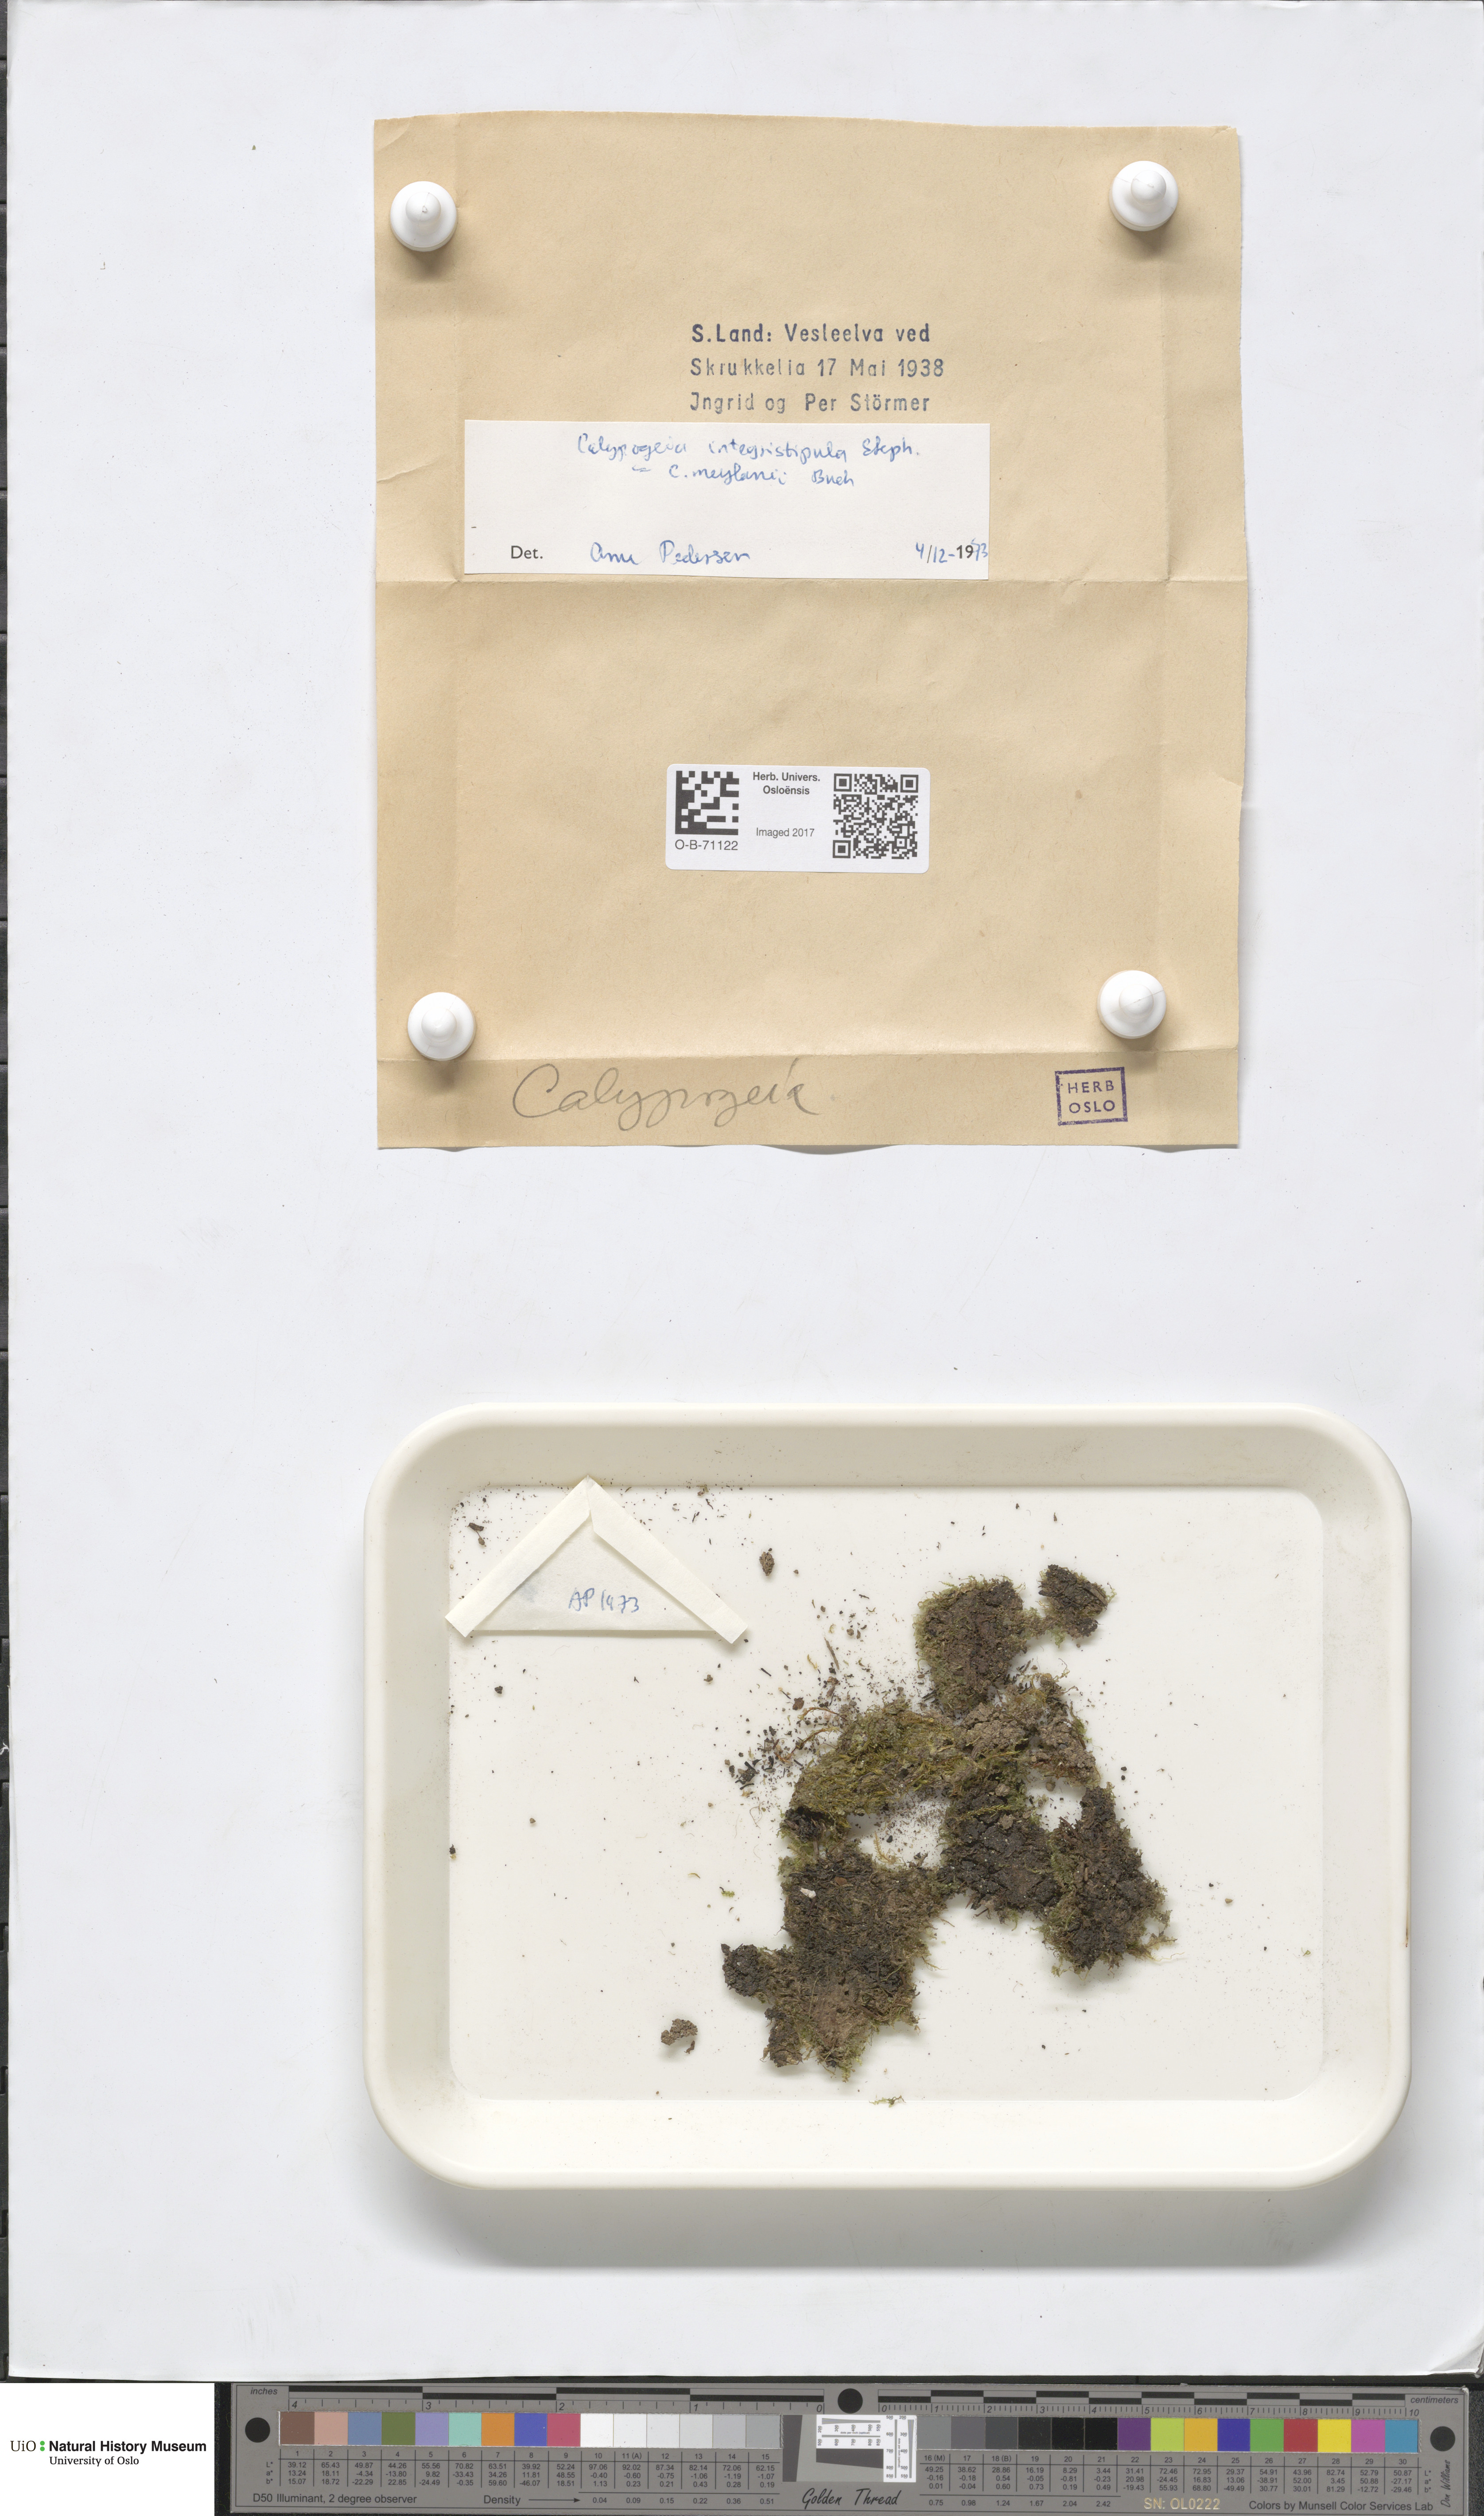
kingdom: Plantae
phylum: Marchantiophyta
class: Jungermanniopsida
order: Jungermanniales
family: Calypogeiaceae
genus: Calypogeia
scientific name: Calypogeia integristipula
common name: Meylan s pouchwort
